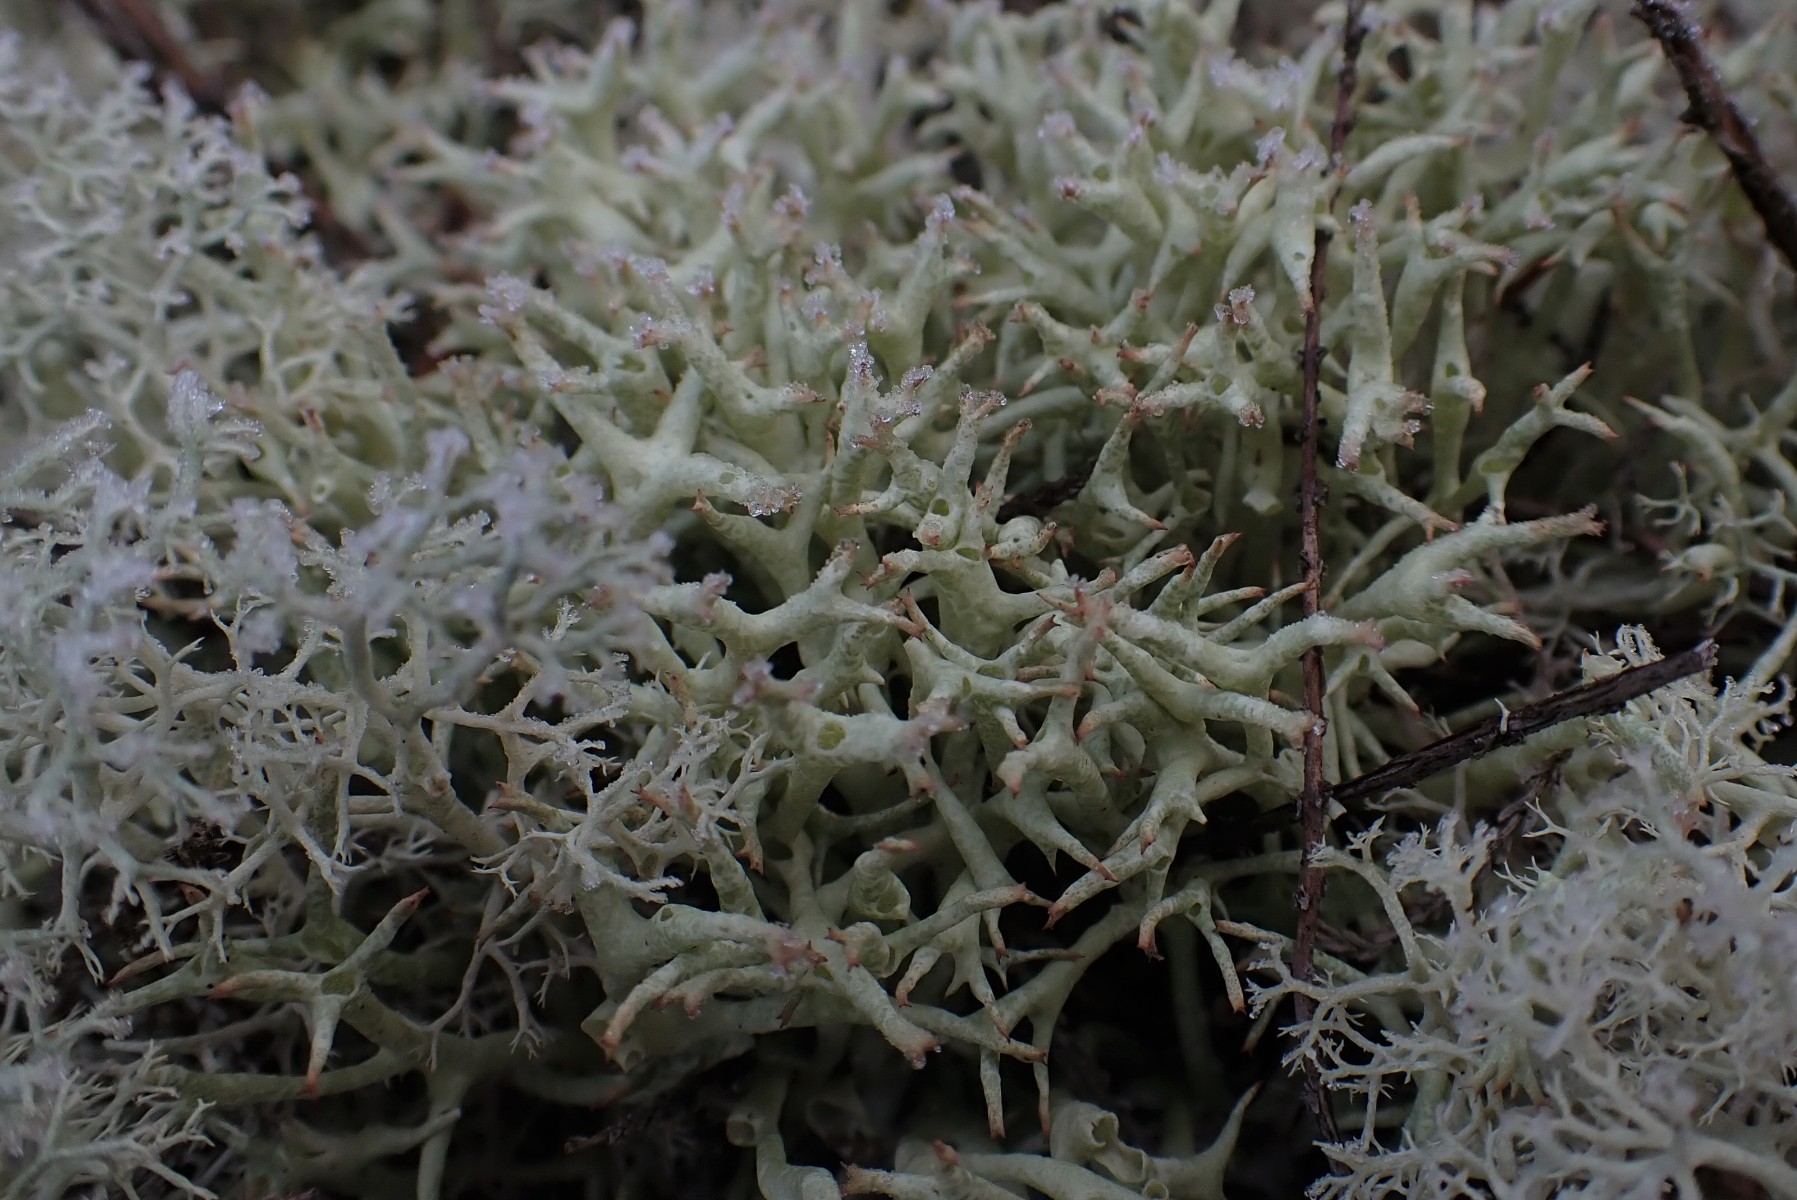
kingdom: Fungi
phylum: Ascomycota
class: Lecanoromycetes
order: Lecanorales
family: Cladoniaceae
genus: Cladonia
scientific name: Cladonia uncialis
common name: pigget bægerlav
